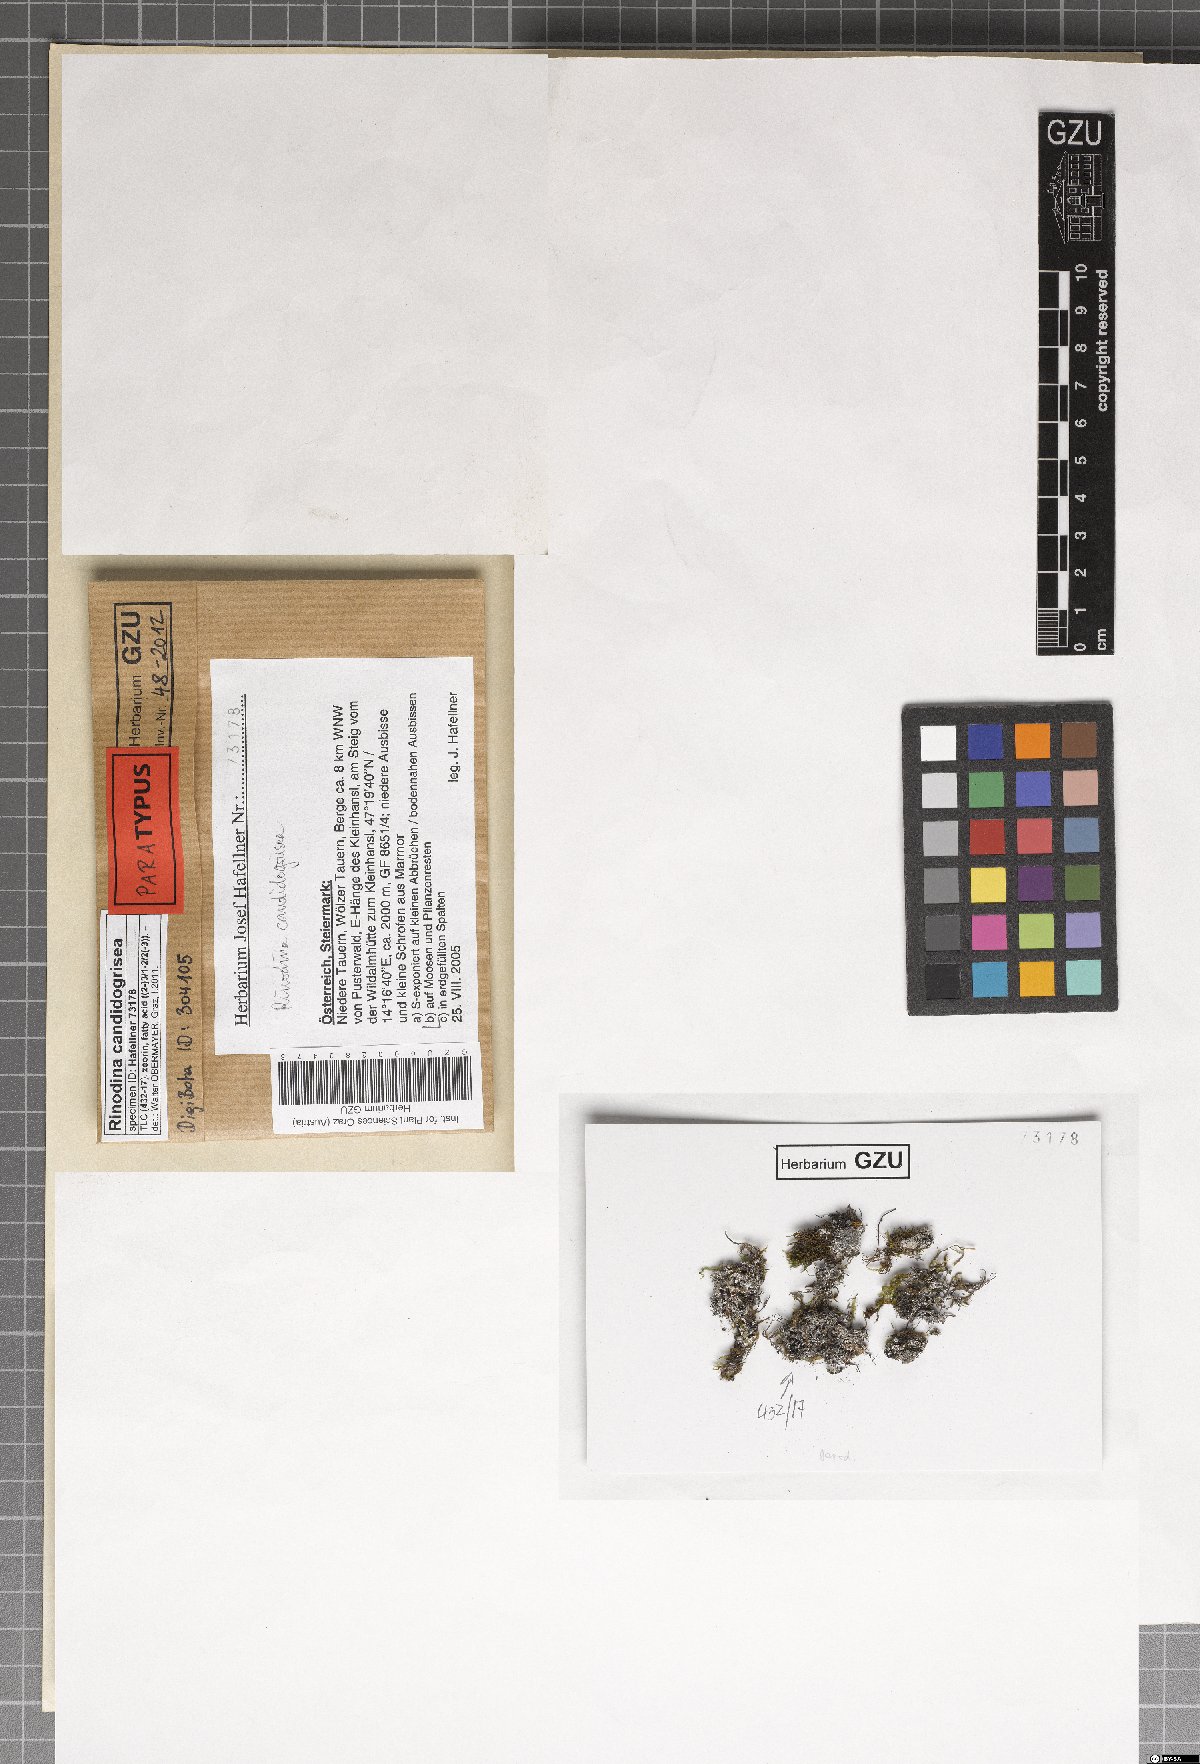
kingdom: Fungi
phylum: Ascomycota
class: Lecanoromycetes
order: Caliciales
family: Physciaceae
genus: Kudratovia
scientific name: Kudratovia candidogrisea
